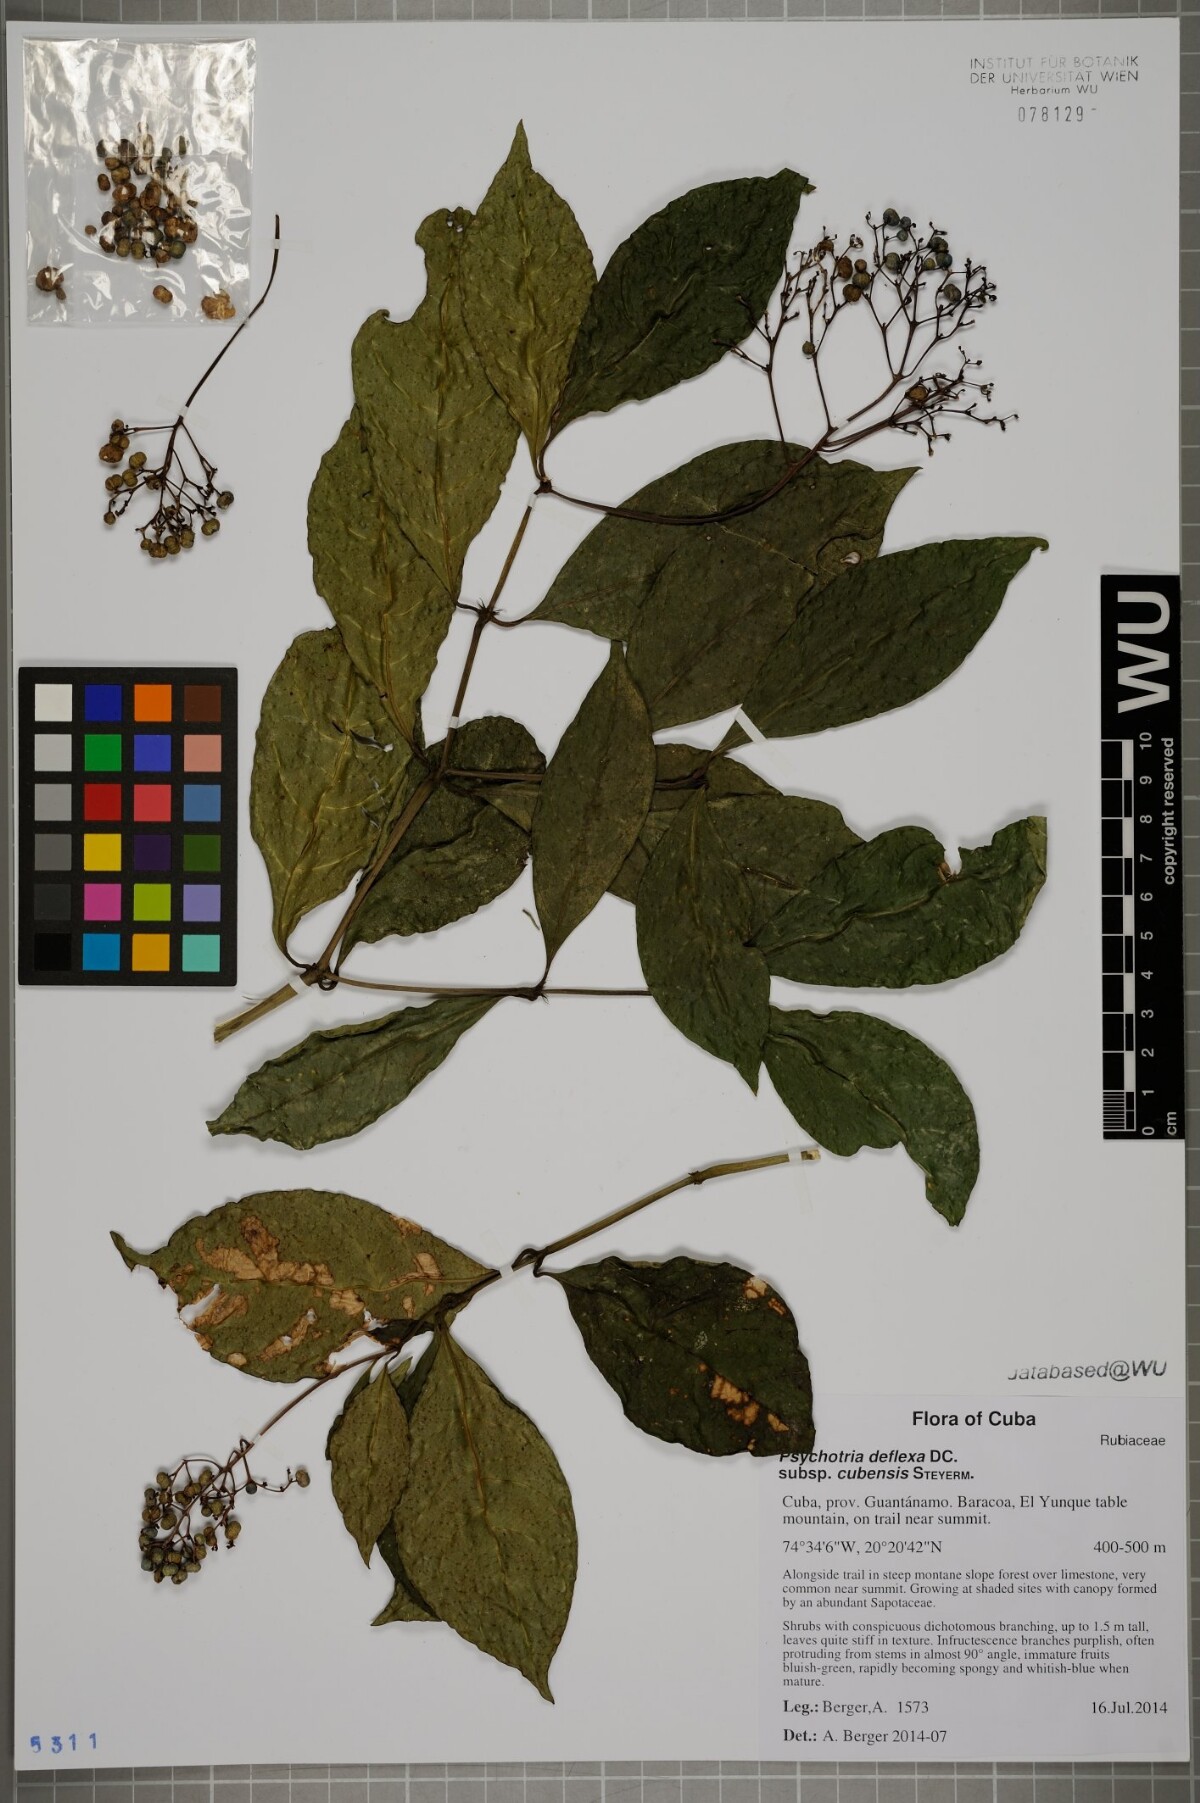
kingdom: Plantae
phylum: Tracheophyta
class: Magnoliopsida
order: Gentianales
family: Rubiaceae
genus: Palicourea
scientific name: Palicourea deflexa
